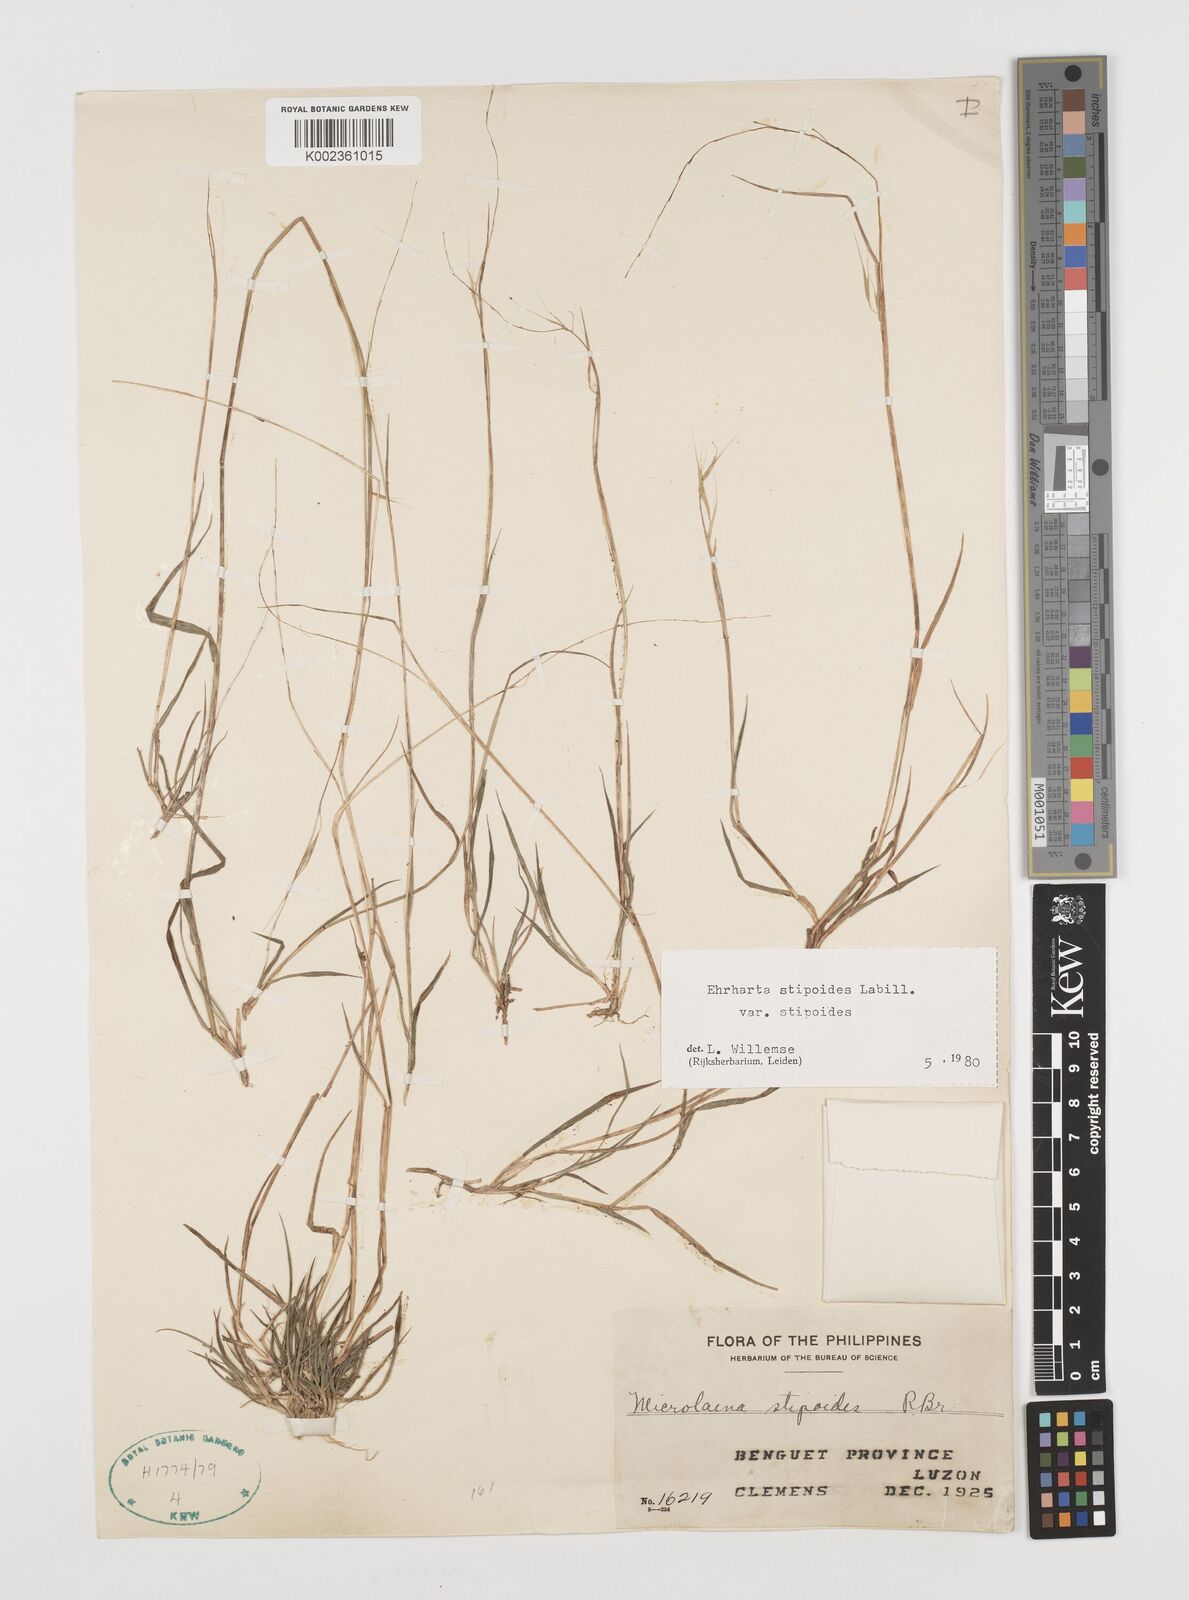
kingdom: Plantae
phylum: Tracheophyta
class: Liliopsida
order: Poales
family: Poaceae
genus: Microlaena
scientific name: Microlaena stipoides
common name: Meadow ricegrass
